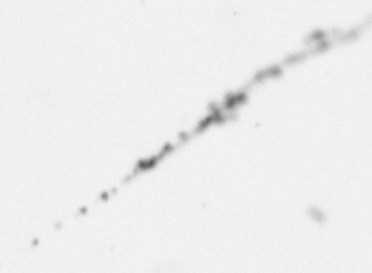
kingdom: Chromista
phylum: Ochrophyta
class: Bacillariophyceae
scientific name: Bacillariophyceae
